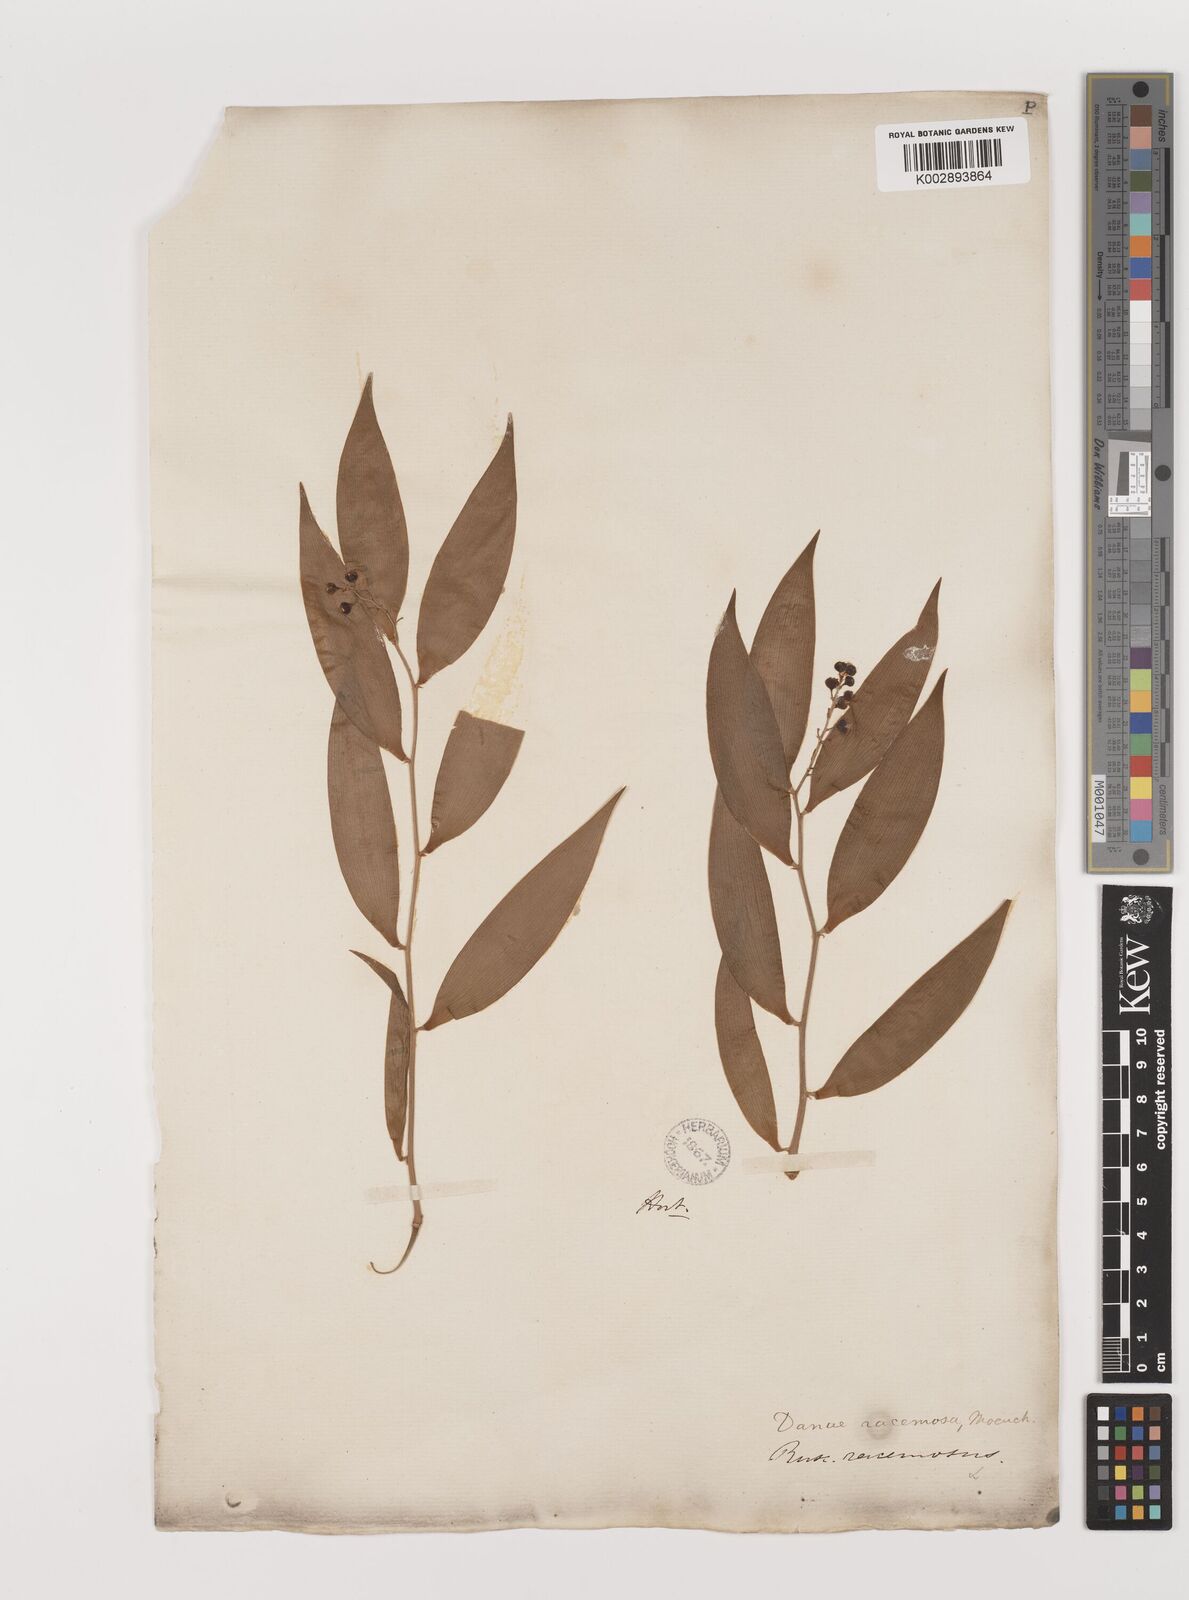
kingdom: Plantae
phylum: Tracheophyta
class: Liliopsida
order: Asparagales
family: Asparagaceae
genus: Danae
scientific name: Danae racemosa
